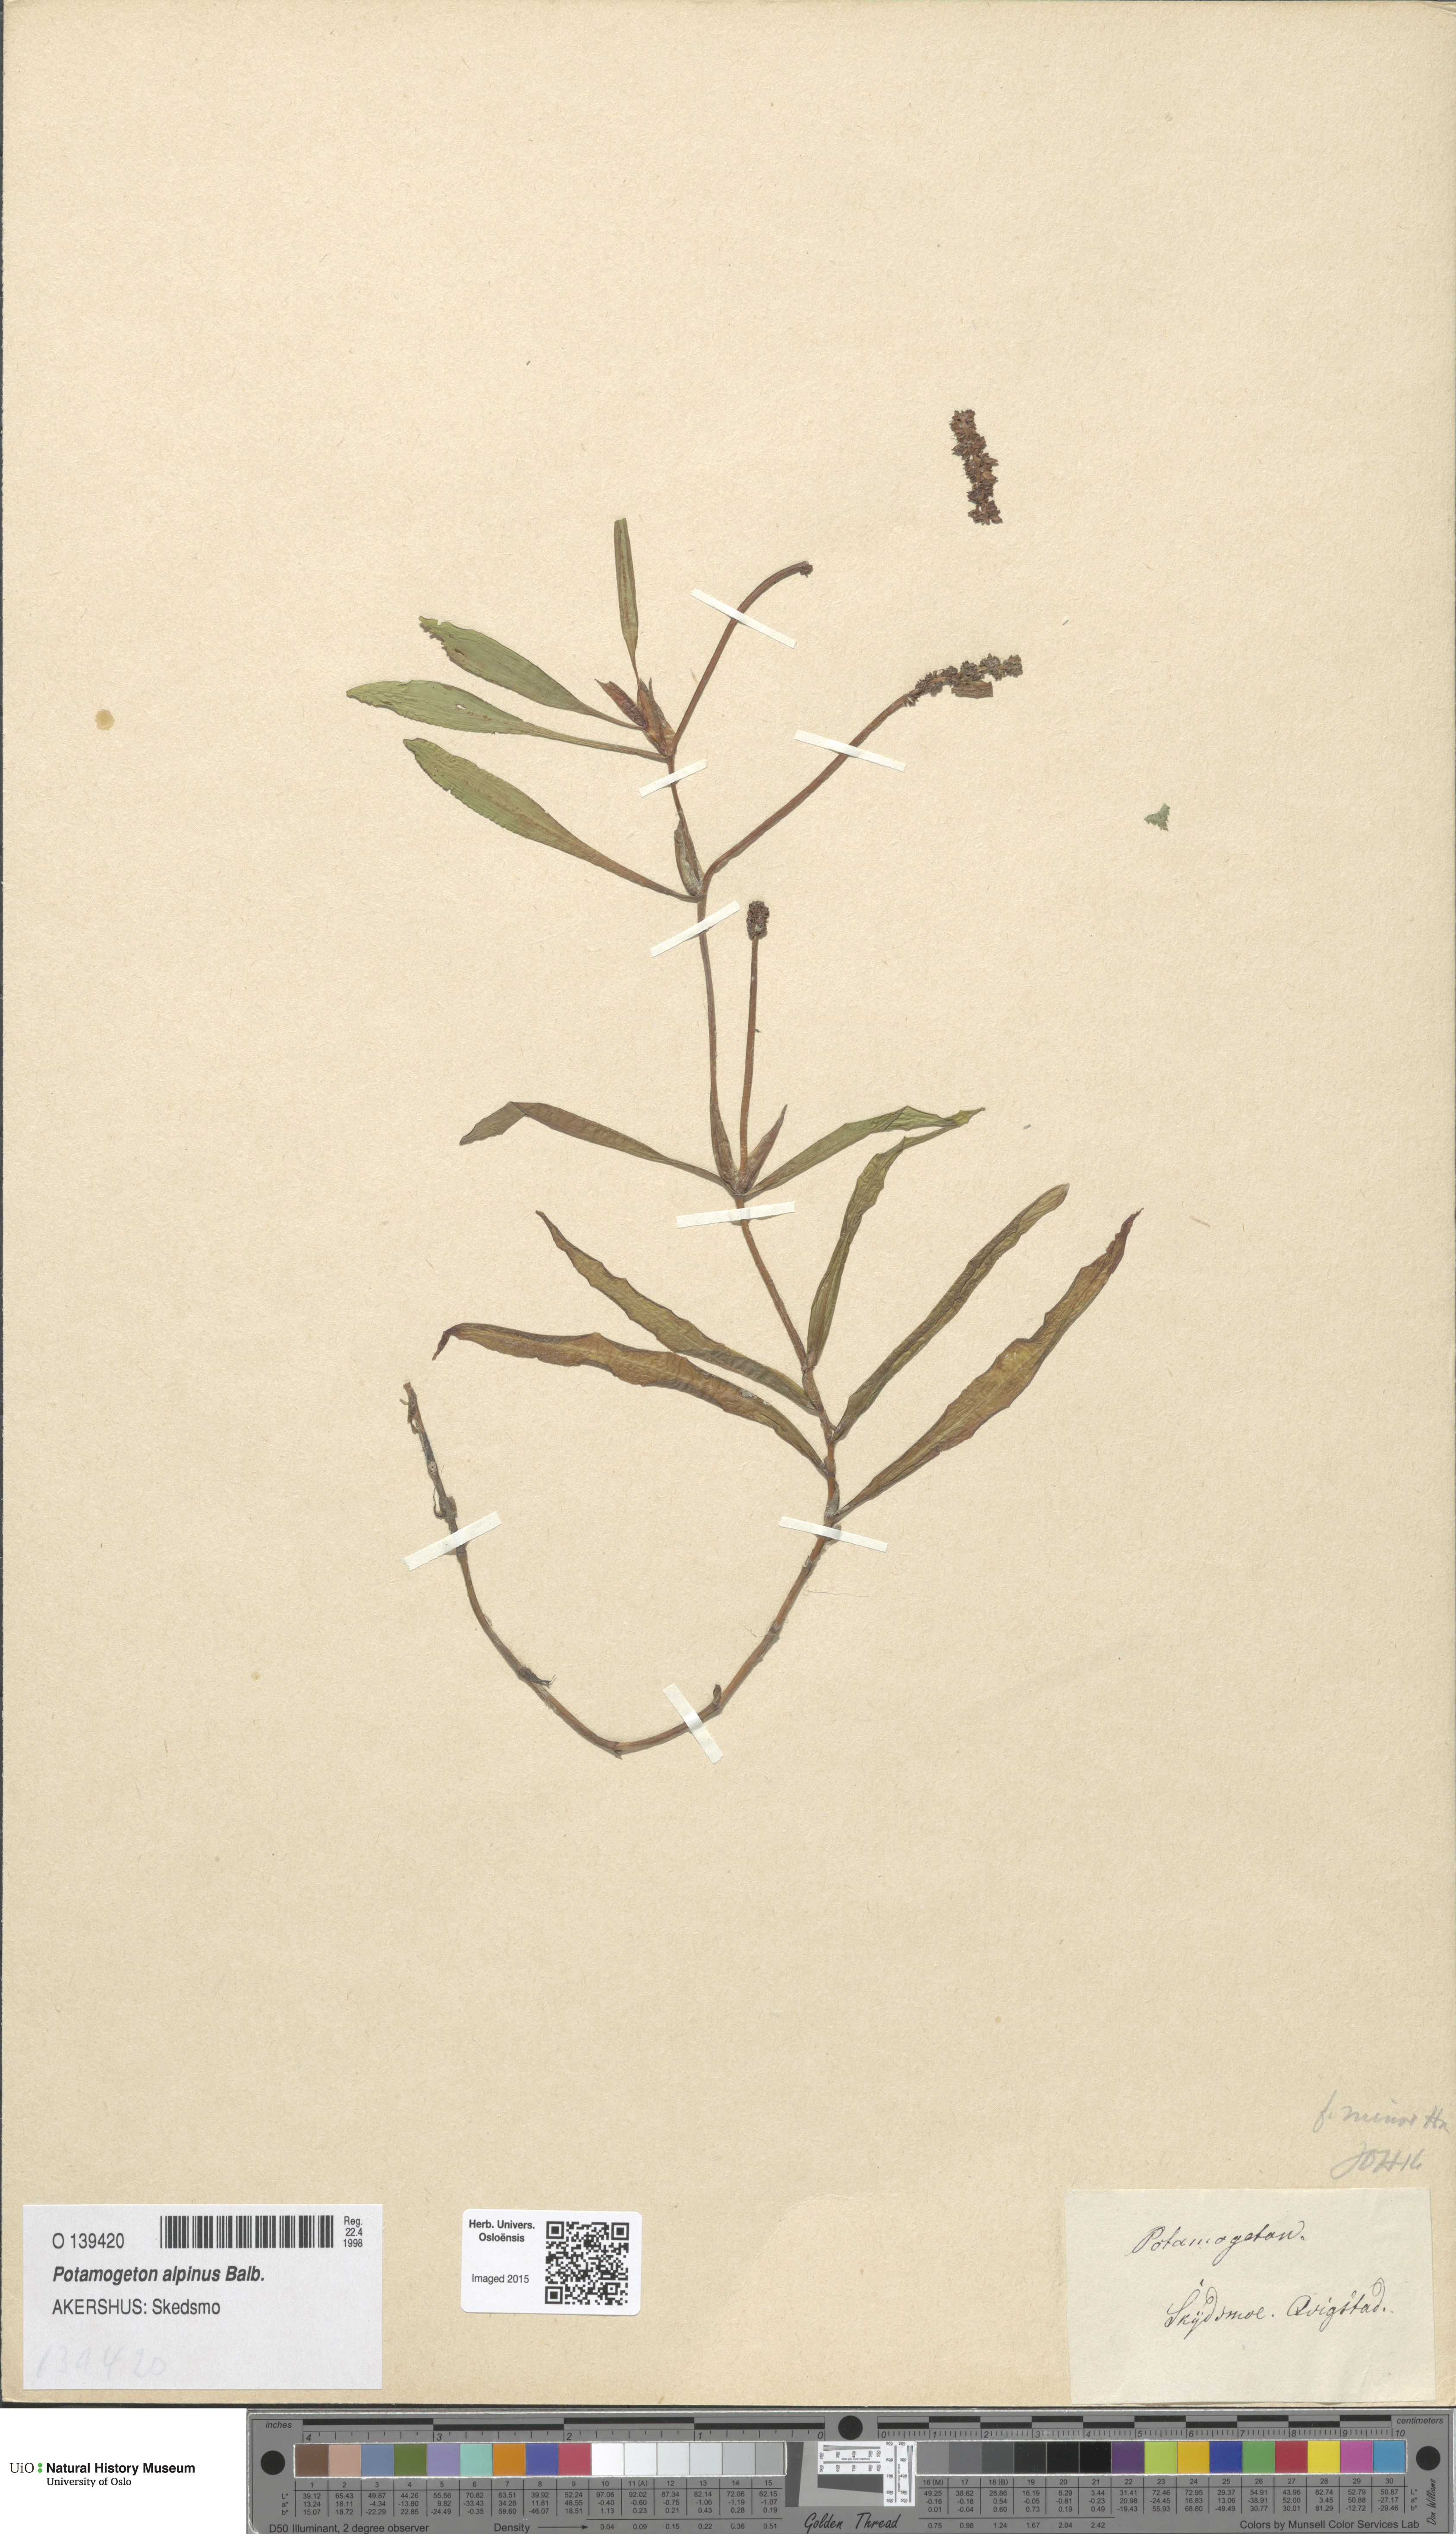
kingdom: Plantae
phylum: Tracheophyta
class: Liliopsida
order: Alismatales
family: Potamogetonaceae
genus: Potamogeton
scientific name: Potamogeton alpinus
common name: Red pondweed
